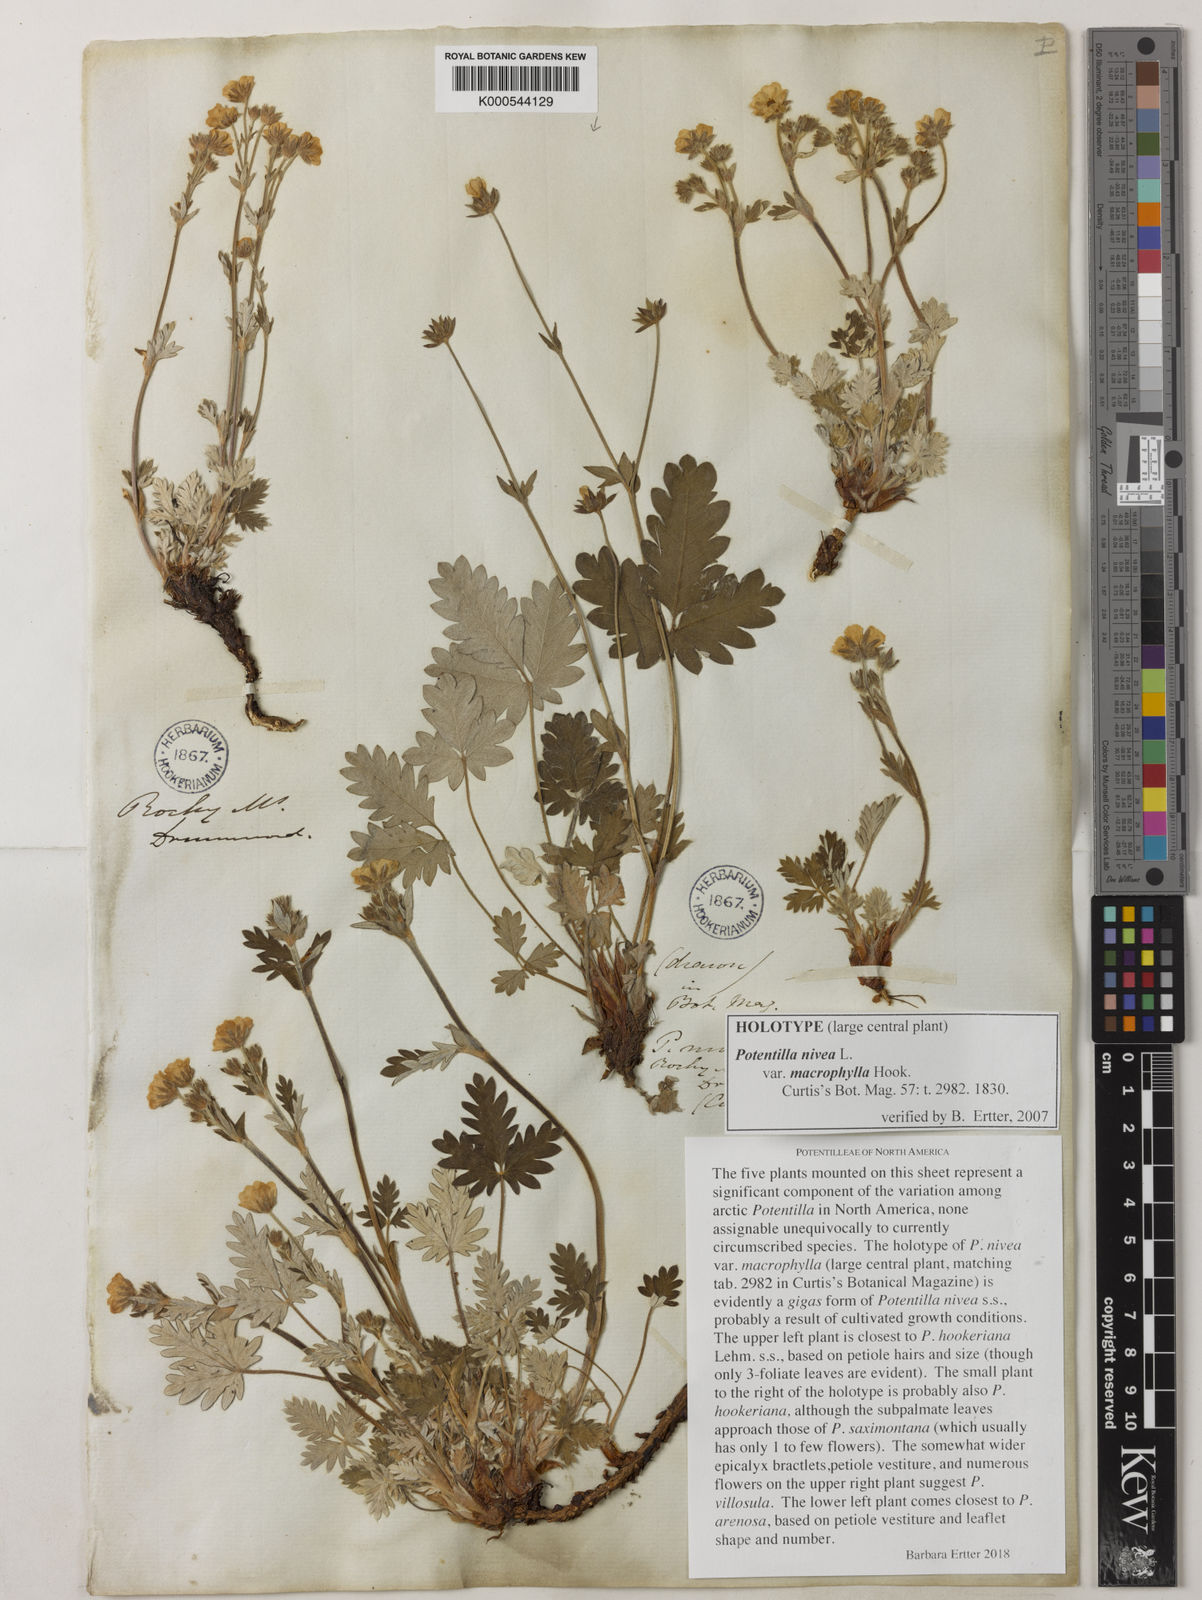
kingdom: Plantae
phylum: Tracheophyta
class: Magnoliopsida
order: Rosales
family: Rosaceae
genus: Potentilla
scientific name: Potentilla nivea
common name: Snow cinquefoil
